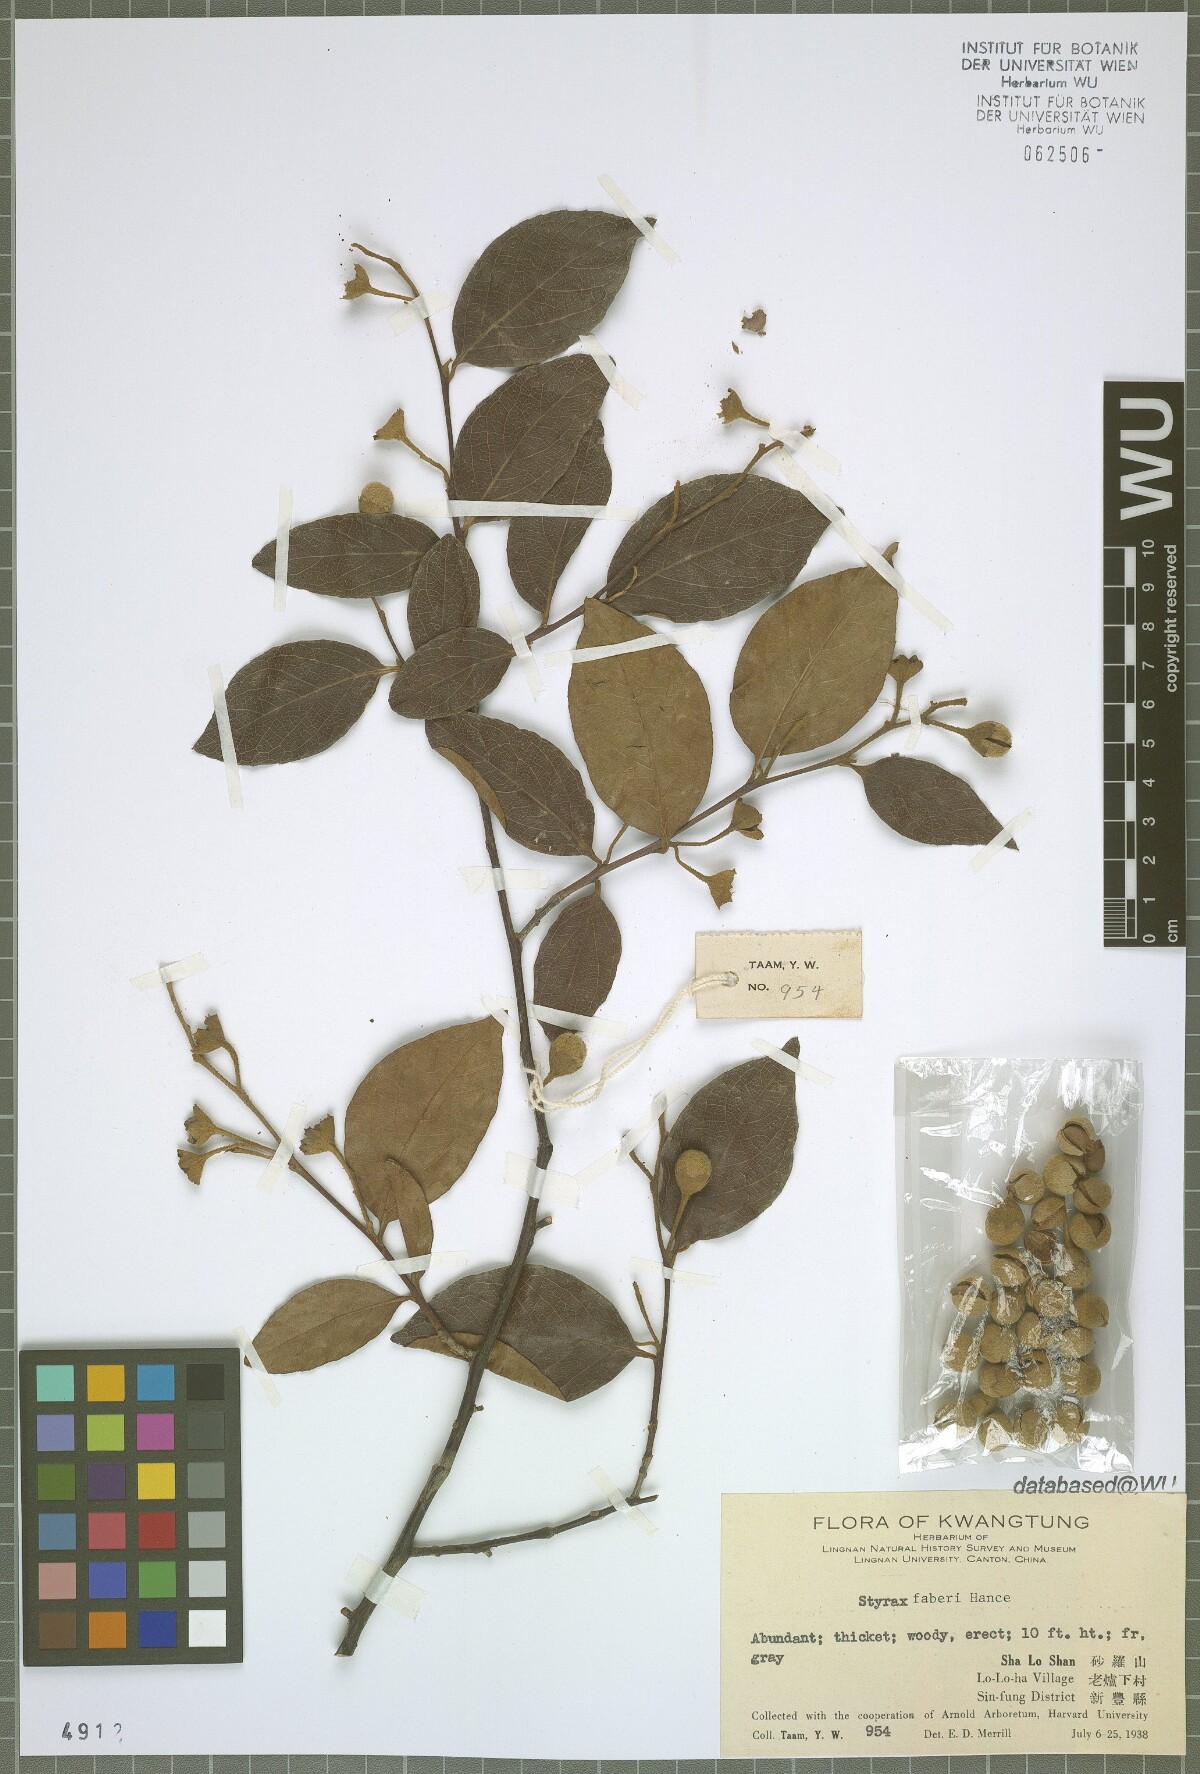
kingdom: Plantae
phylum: Tracheophyta
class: Magnoliopsida
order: Ericales
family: Styracaceae
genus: Styrax
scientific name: Styrax faberi
